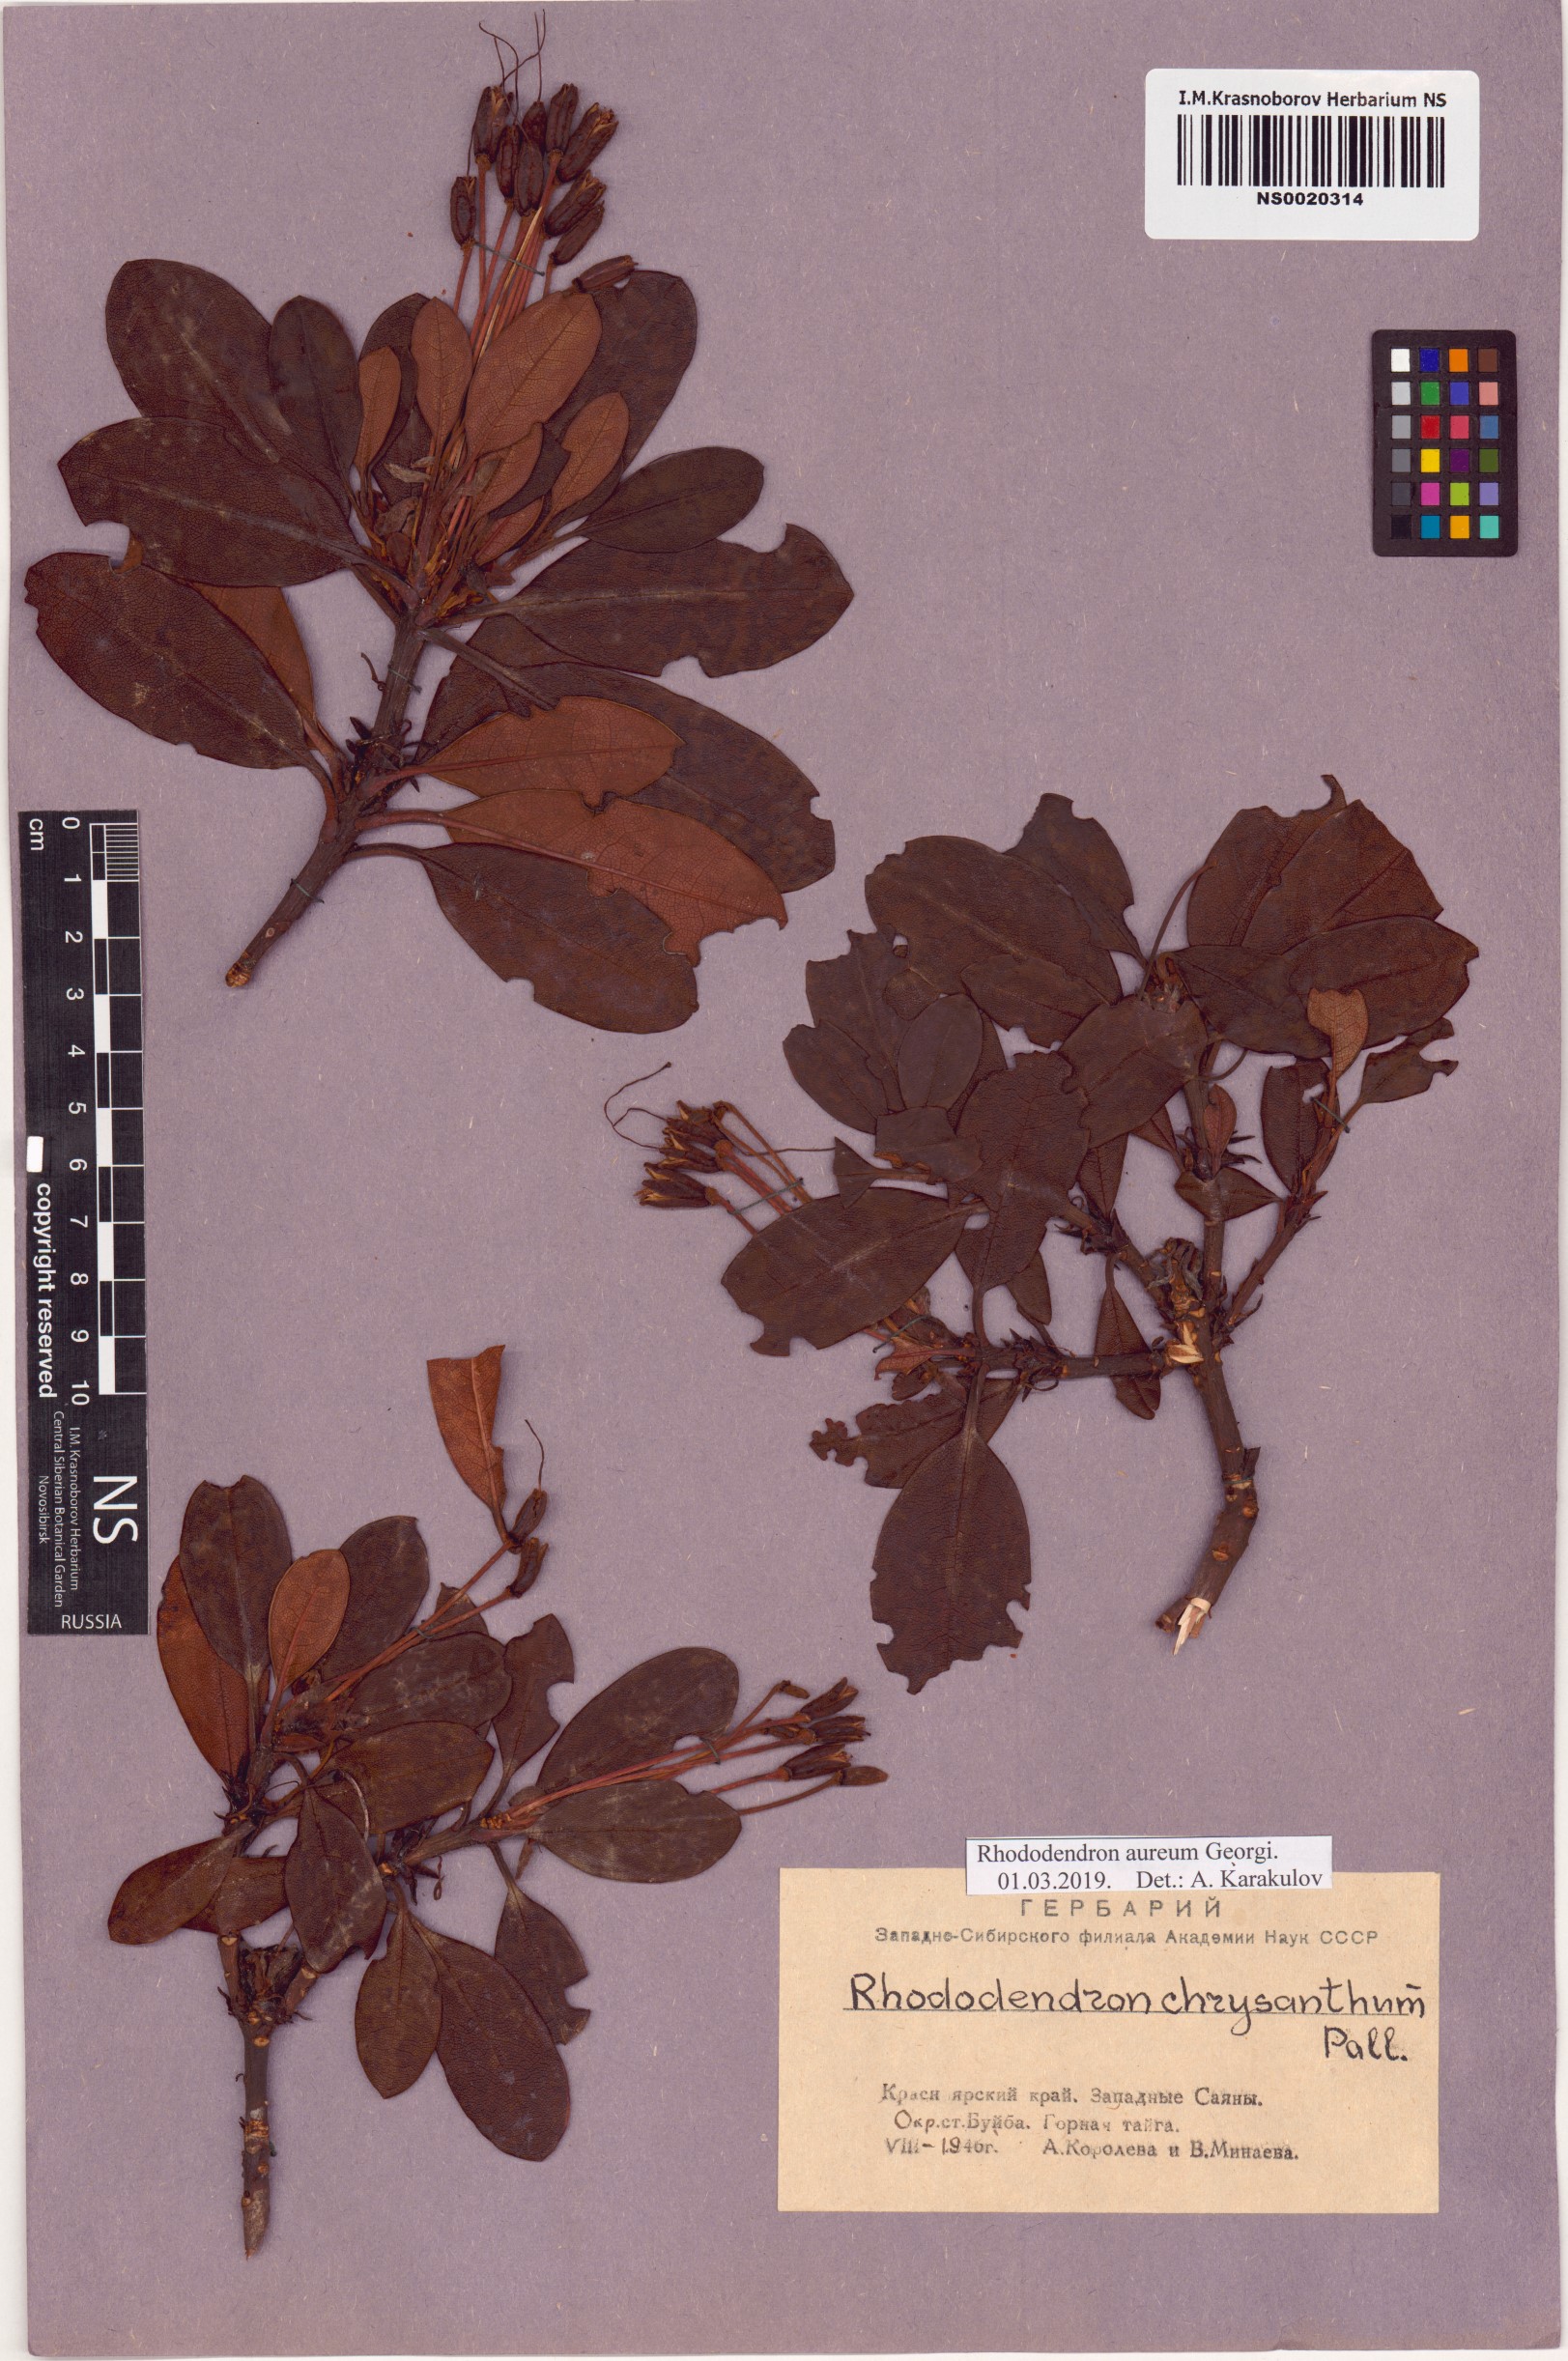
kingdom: Plantae
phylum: Tracheophyta
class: Magnoliopsida
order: Ericales
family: Ericaceae
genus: Rhododendron
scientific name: Rhododendron aureum
